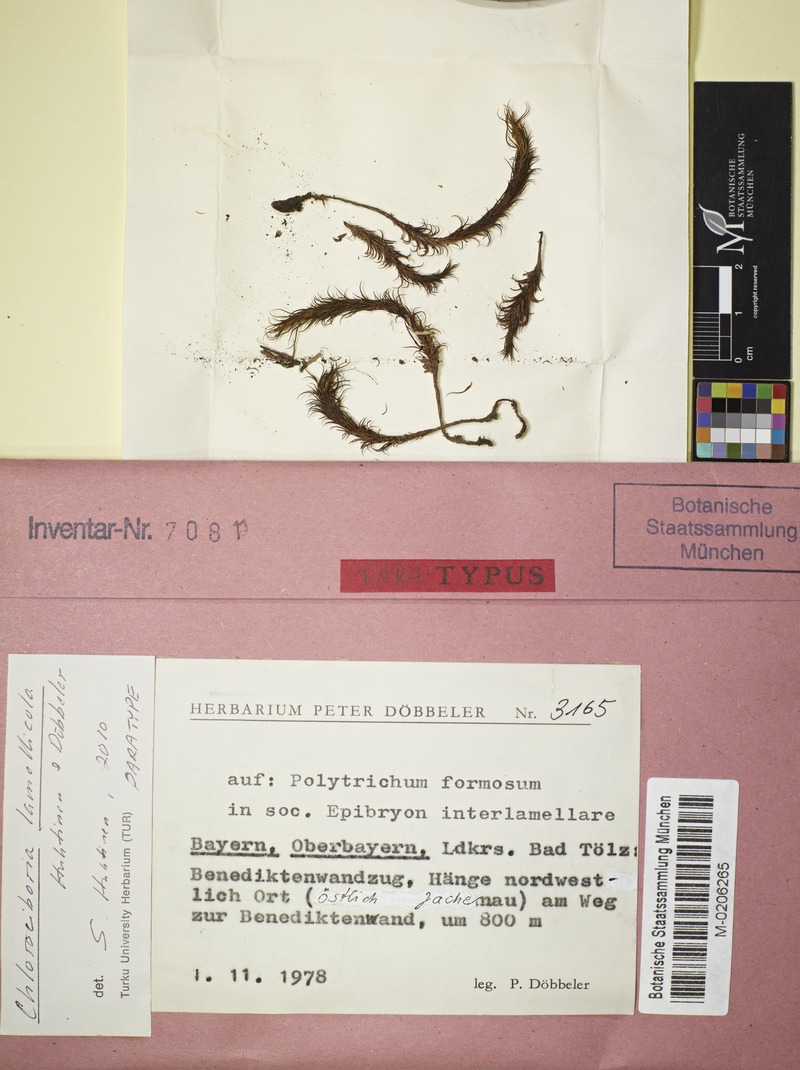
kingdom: Fungi
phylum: Ascomycota
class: Leotiomycetes
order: Helotiales
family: Chlorociboriaceae
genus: Chlorociboria
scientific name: Chlorociboria lamellicola
